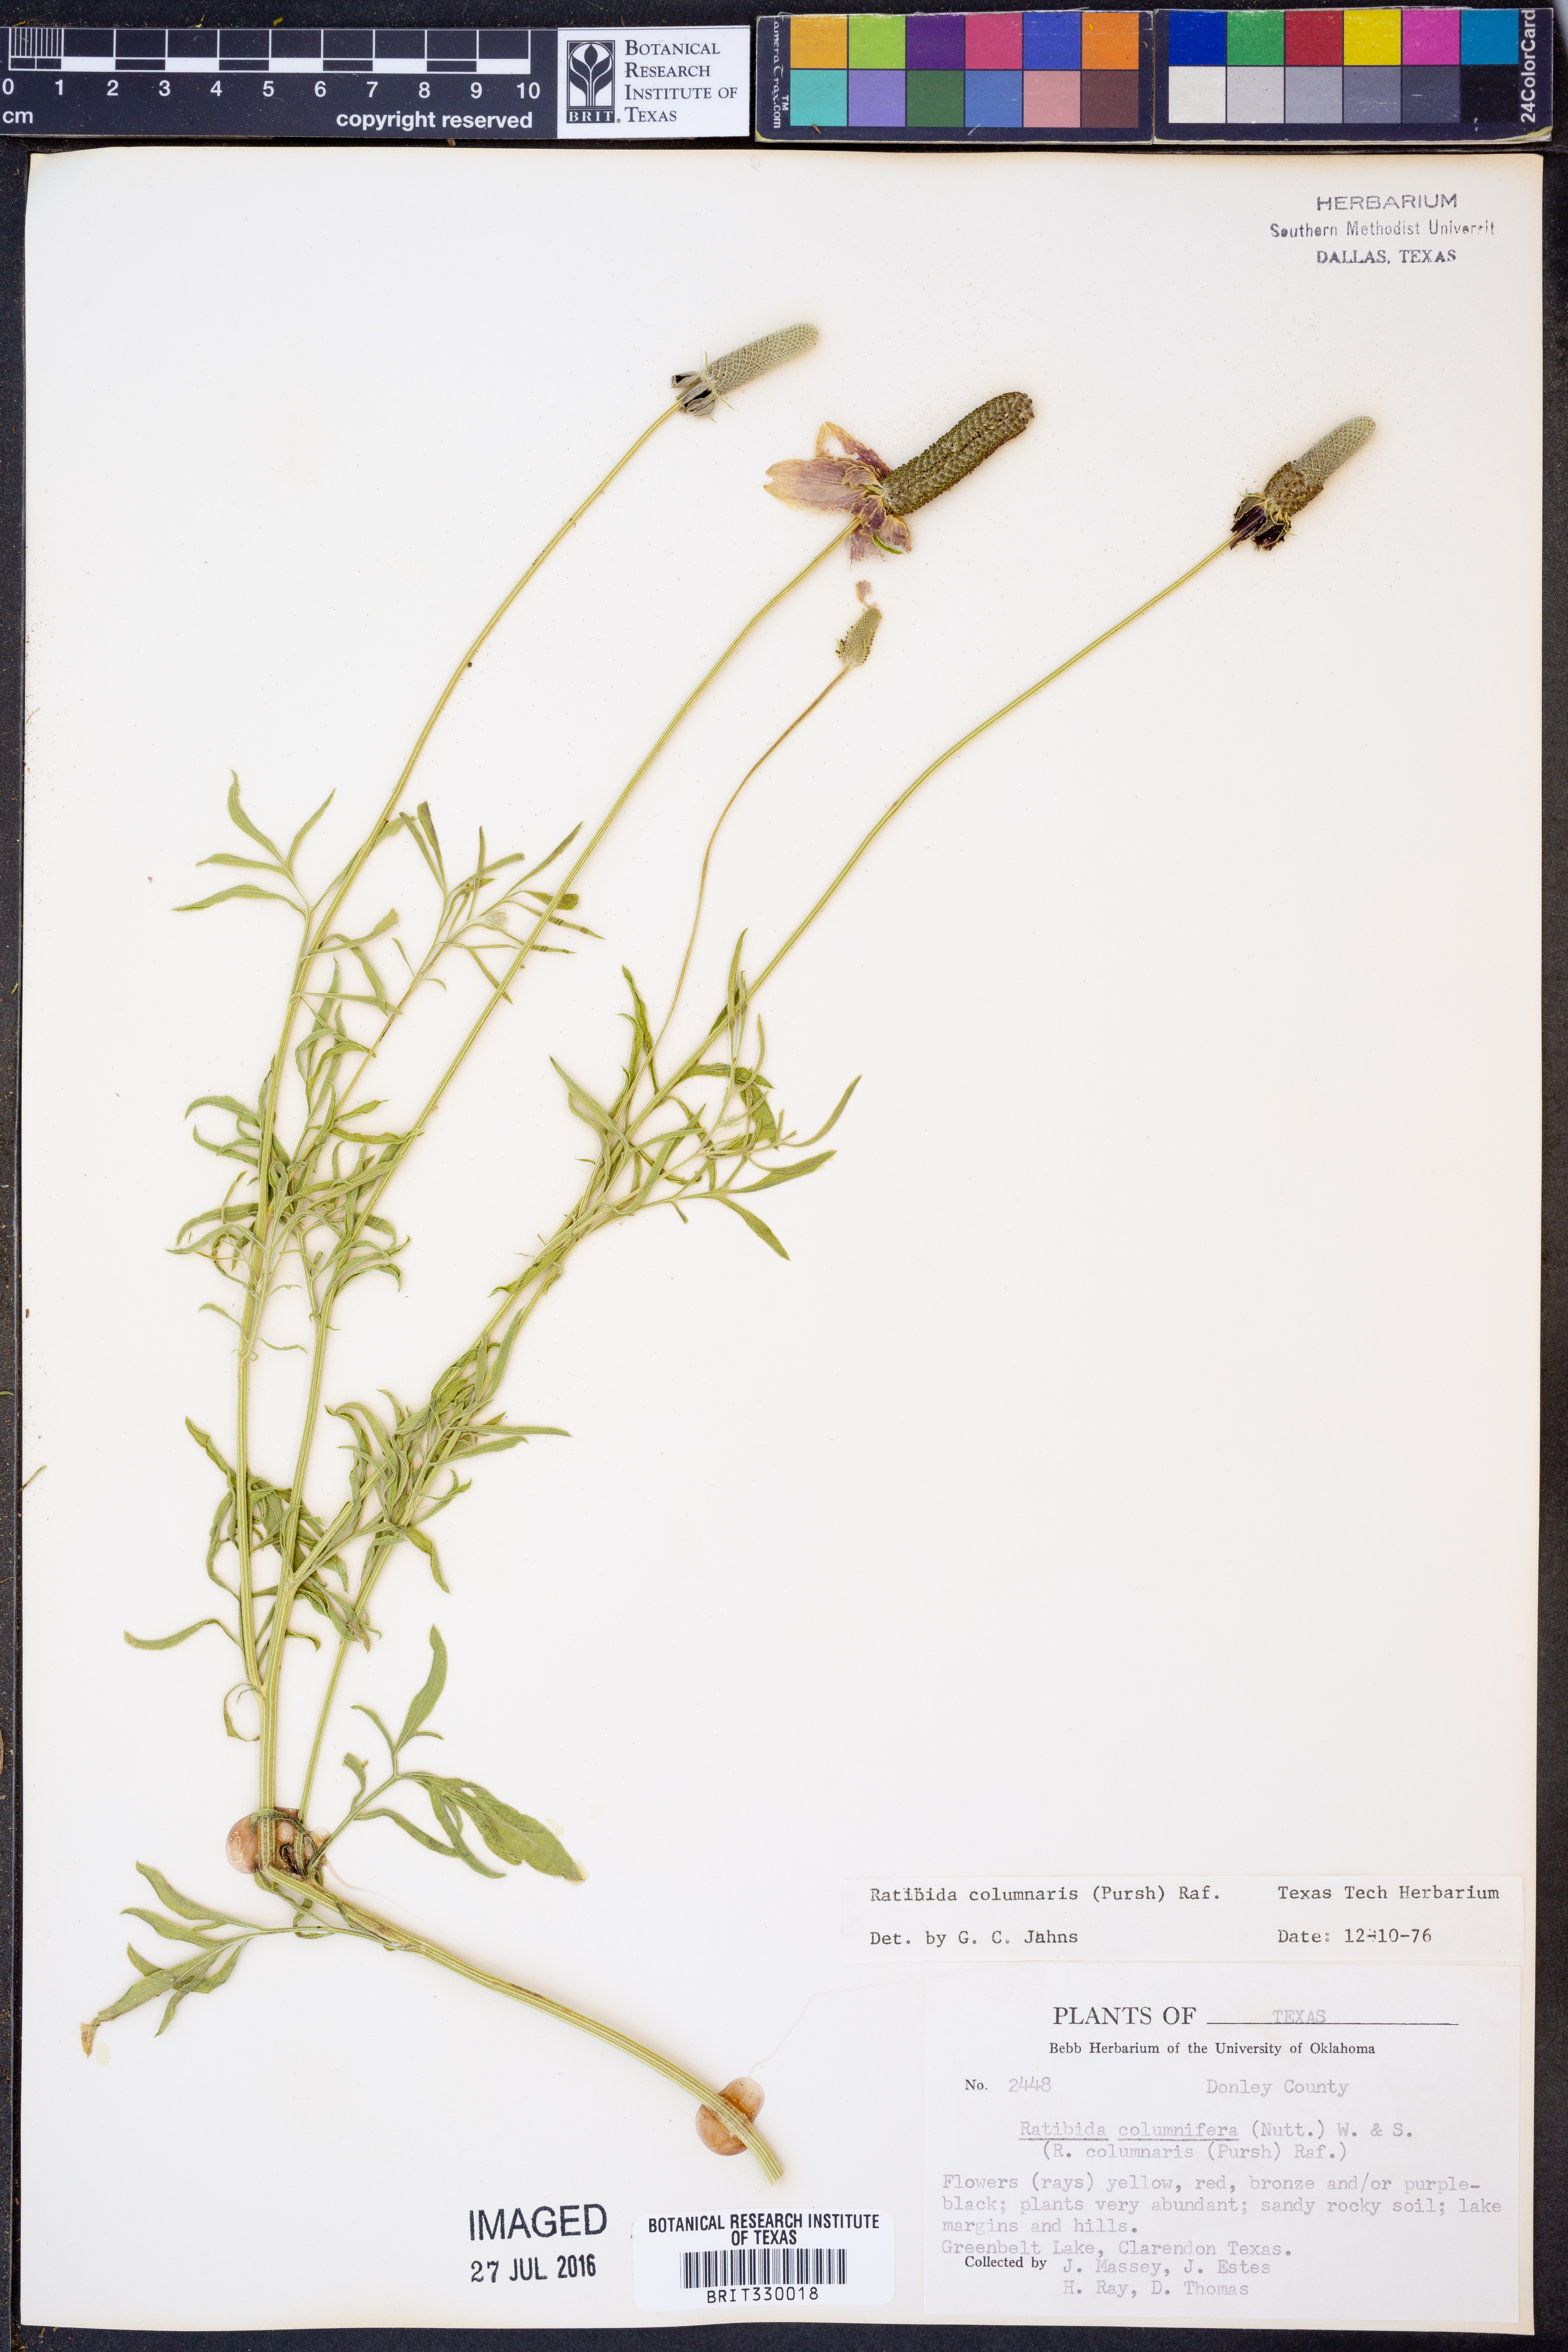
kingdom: Plantae
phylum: Tracheophyta
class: Magnoliopsida
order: Asterales
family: Asteraceae
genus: Ratibida
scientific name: Ratibida columnifera
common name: Prairie coneflower
